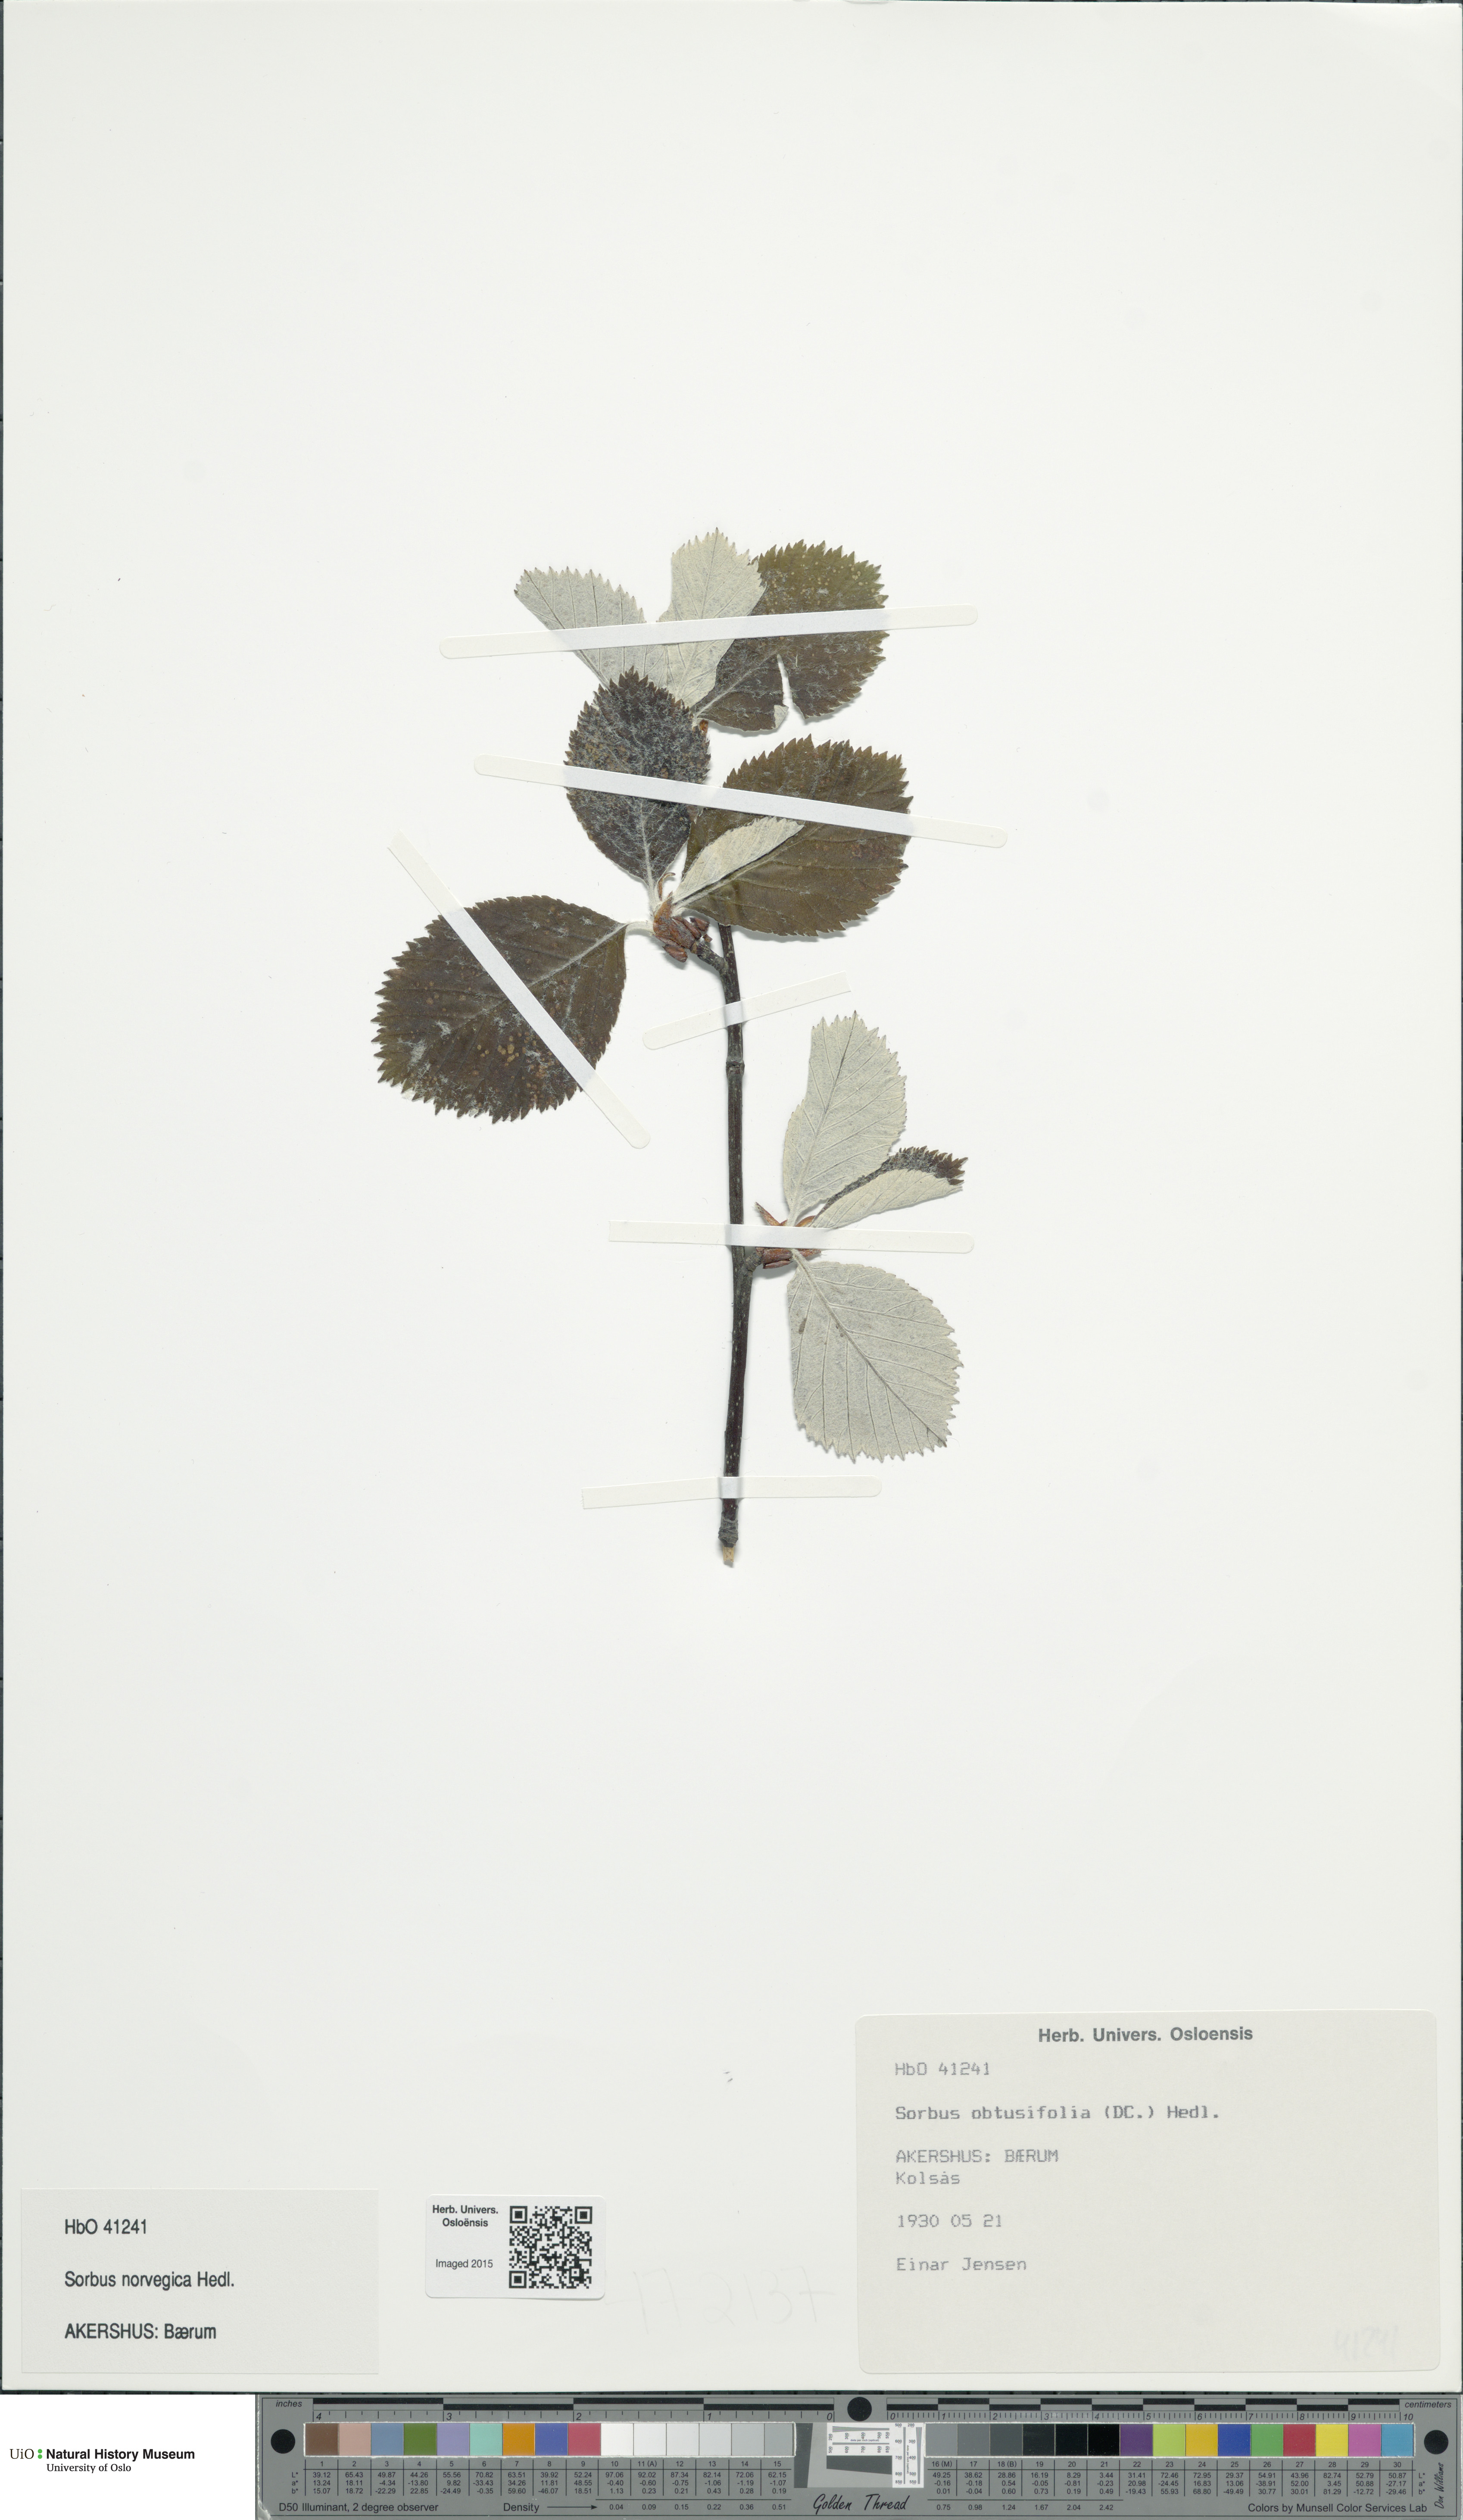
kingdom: Plantae
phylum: Tracheophyta
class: Magnoliopsida
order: Rosales
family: Rosaceae
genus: Aria
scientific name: Aria obtusifolia
